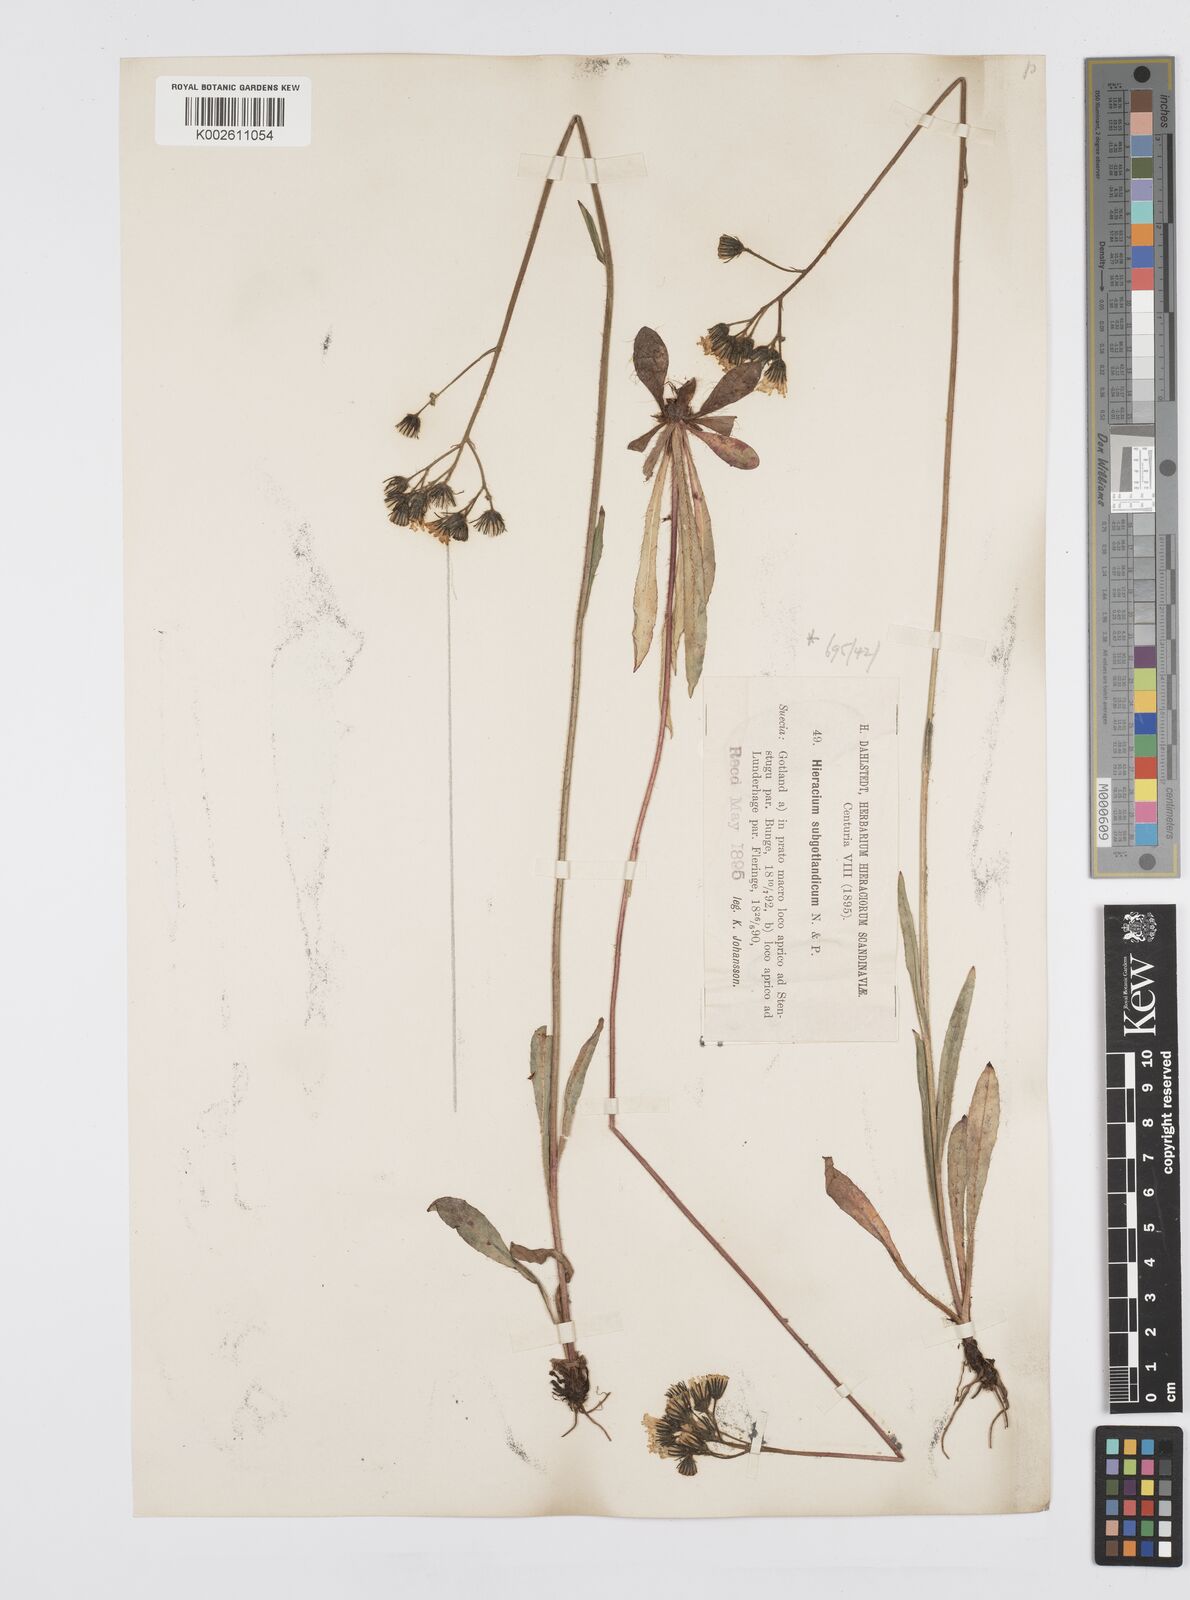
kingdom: Plantae
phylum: Tracheophyta
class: Magnoliopsida
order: Asterales
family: Asteraceae
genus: Pilosella
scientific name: Pilosella piloselloides
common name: Glaucous king-devil
